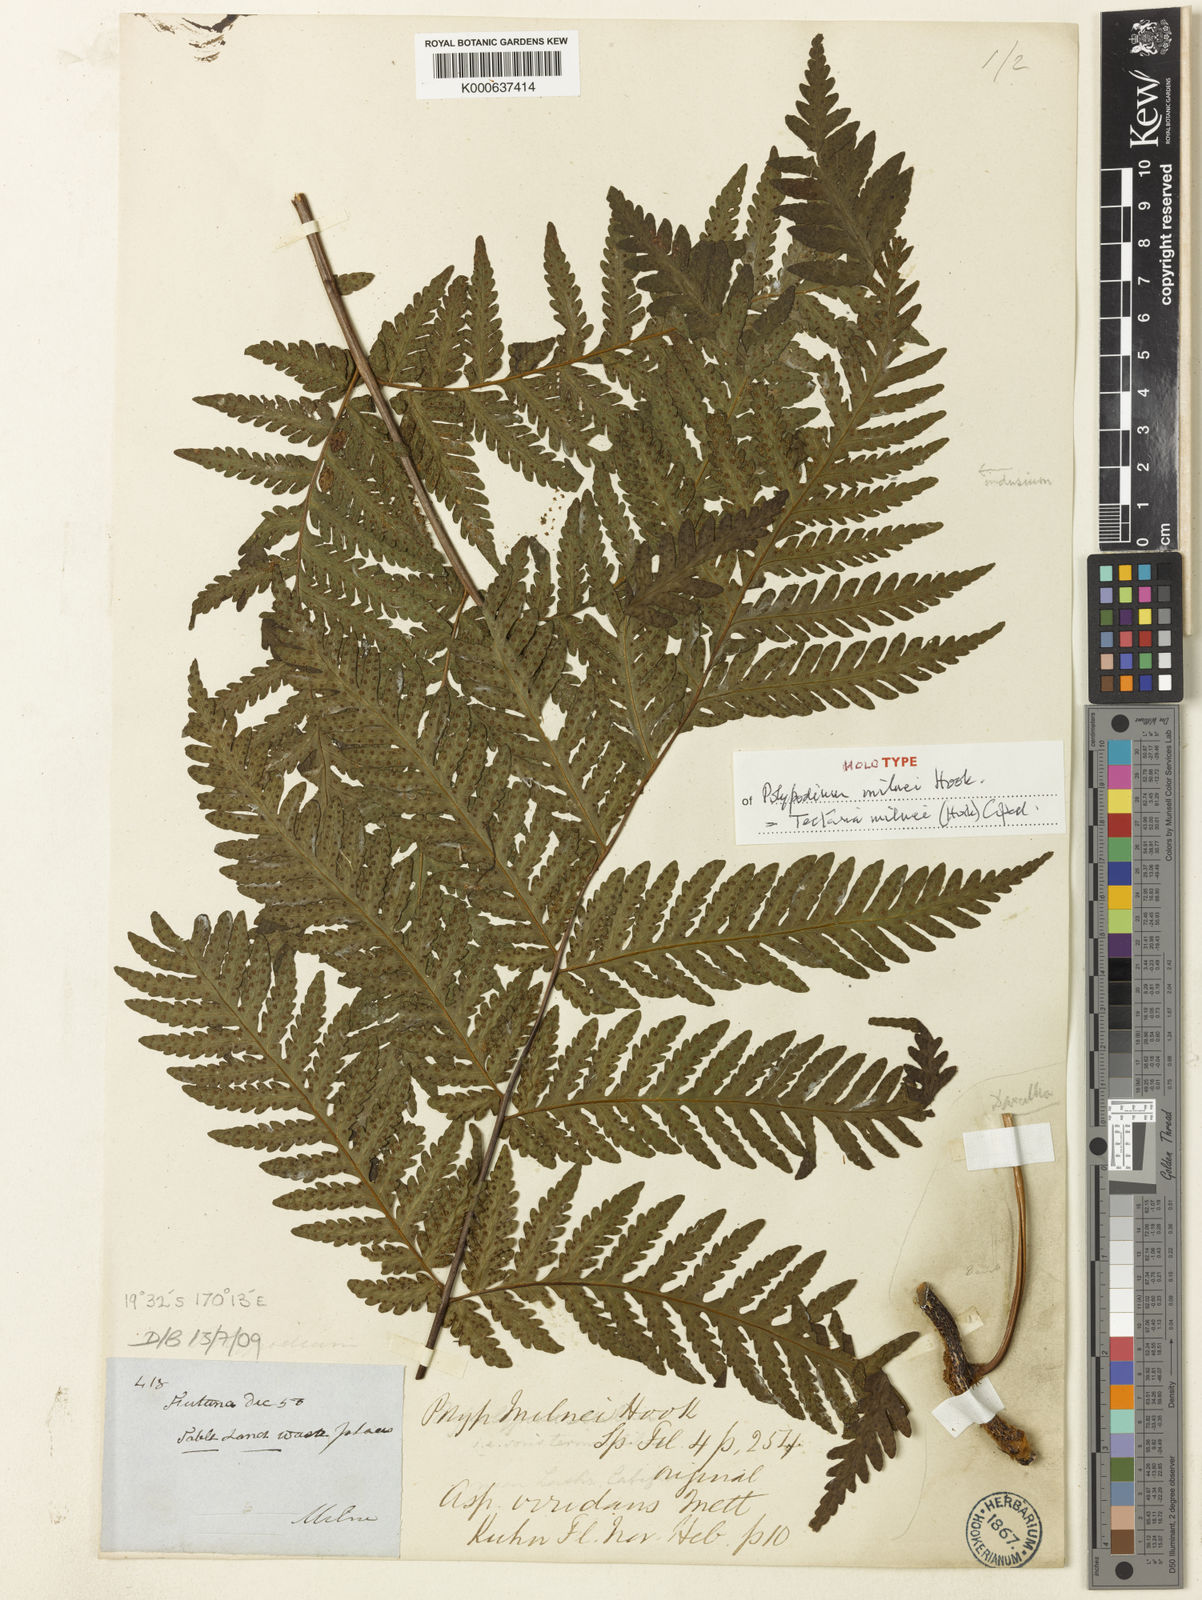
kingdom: Plantae
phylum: Tracheophyta
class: Polypodiopsida
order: Polypodiales
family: Tectariaceae
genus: Tectaria
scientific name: Tectaria hookeri
